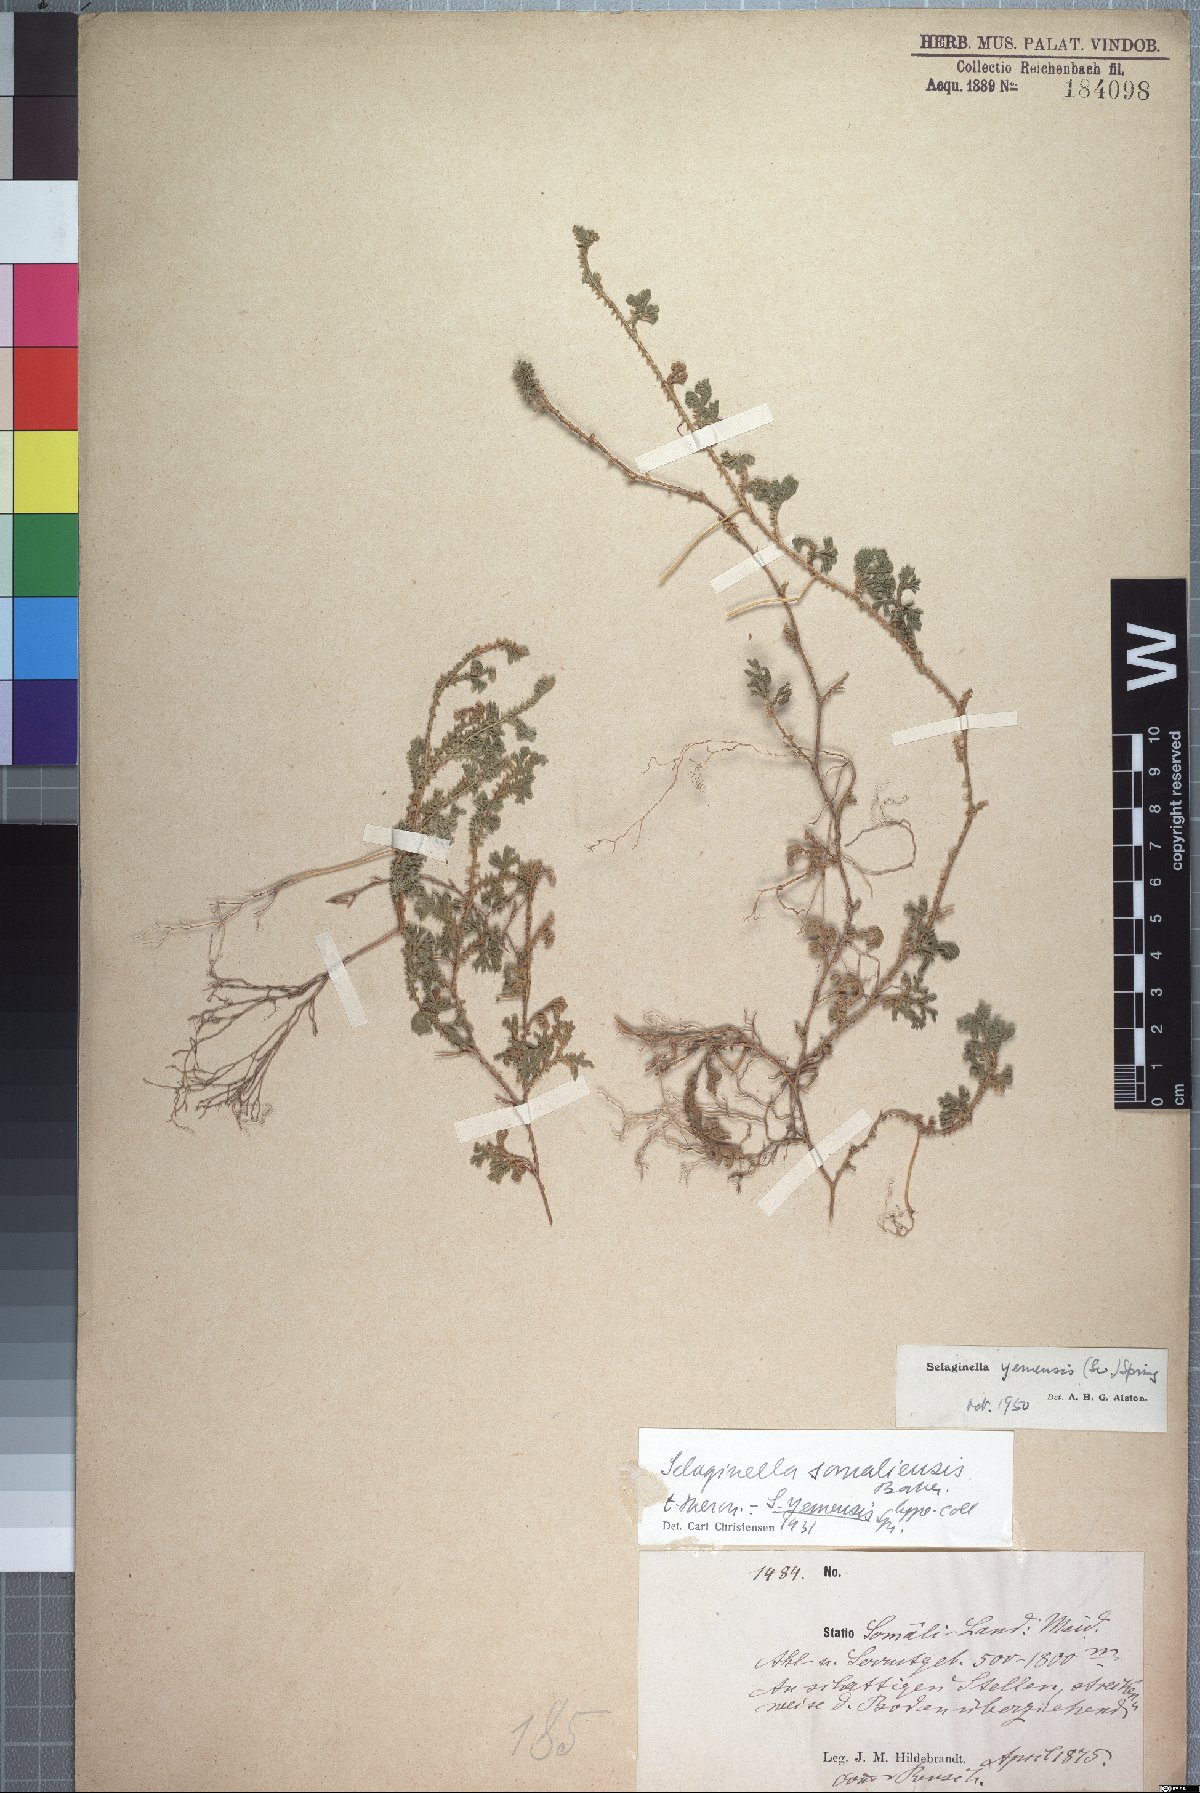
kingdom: Plantae
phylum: Tracheophyta
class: Lycopodiopsida
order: Selaginellales
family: Selaginellaceae
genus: Selaginella
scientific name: Selaginella yemensis
